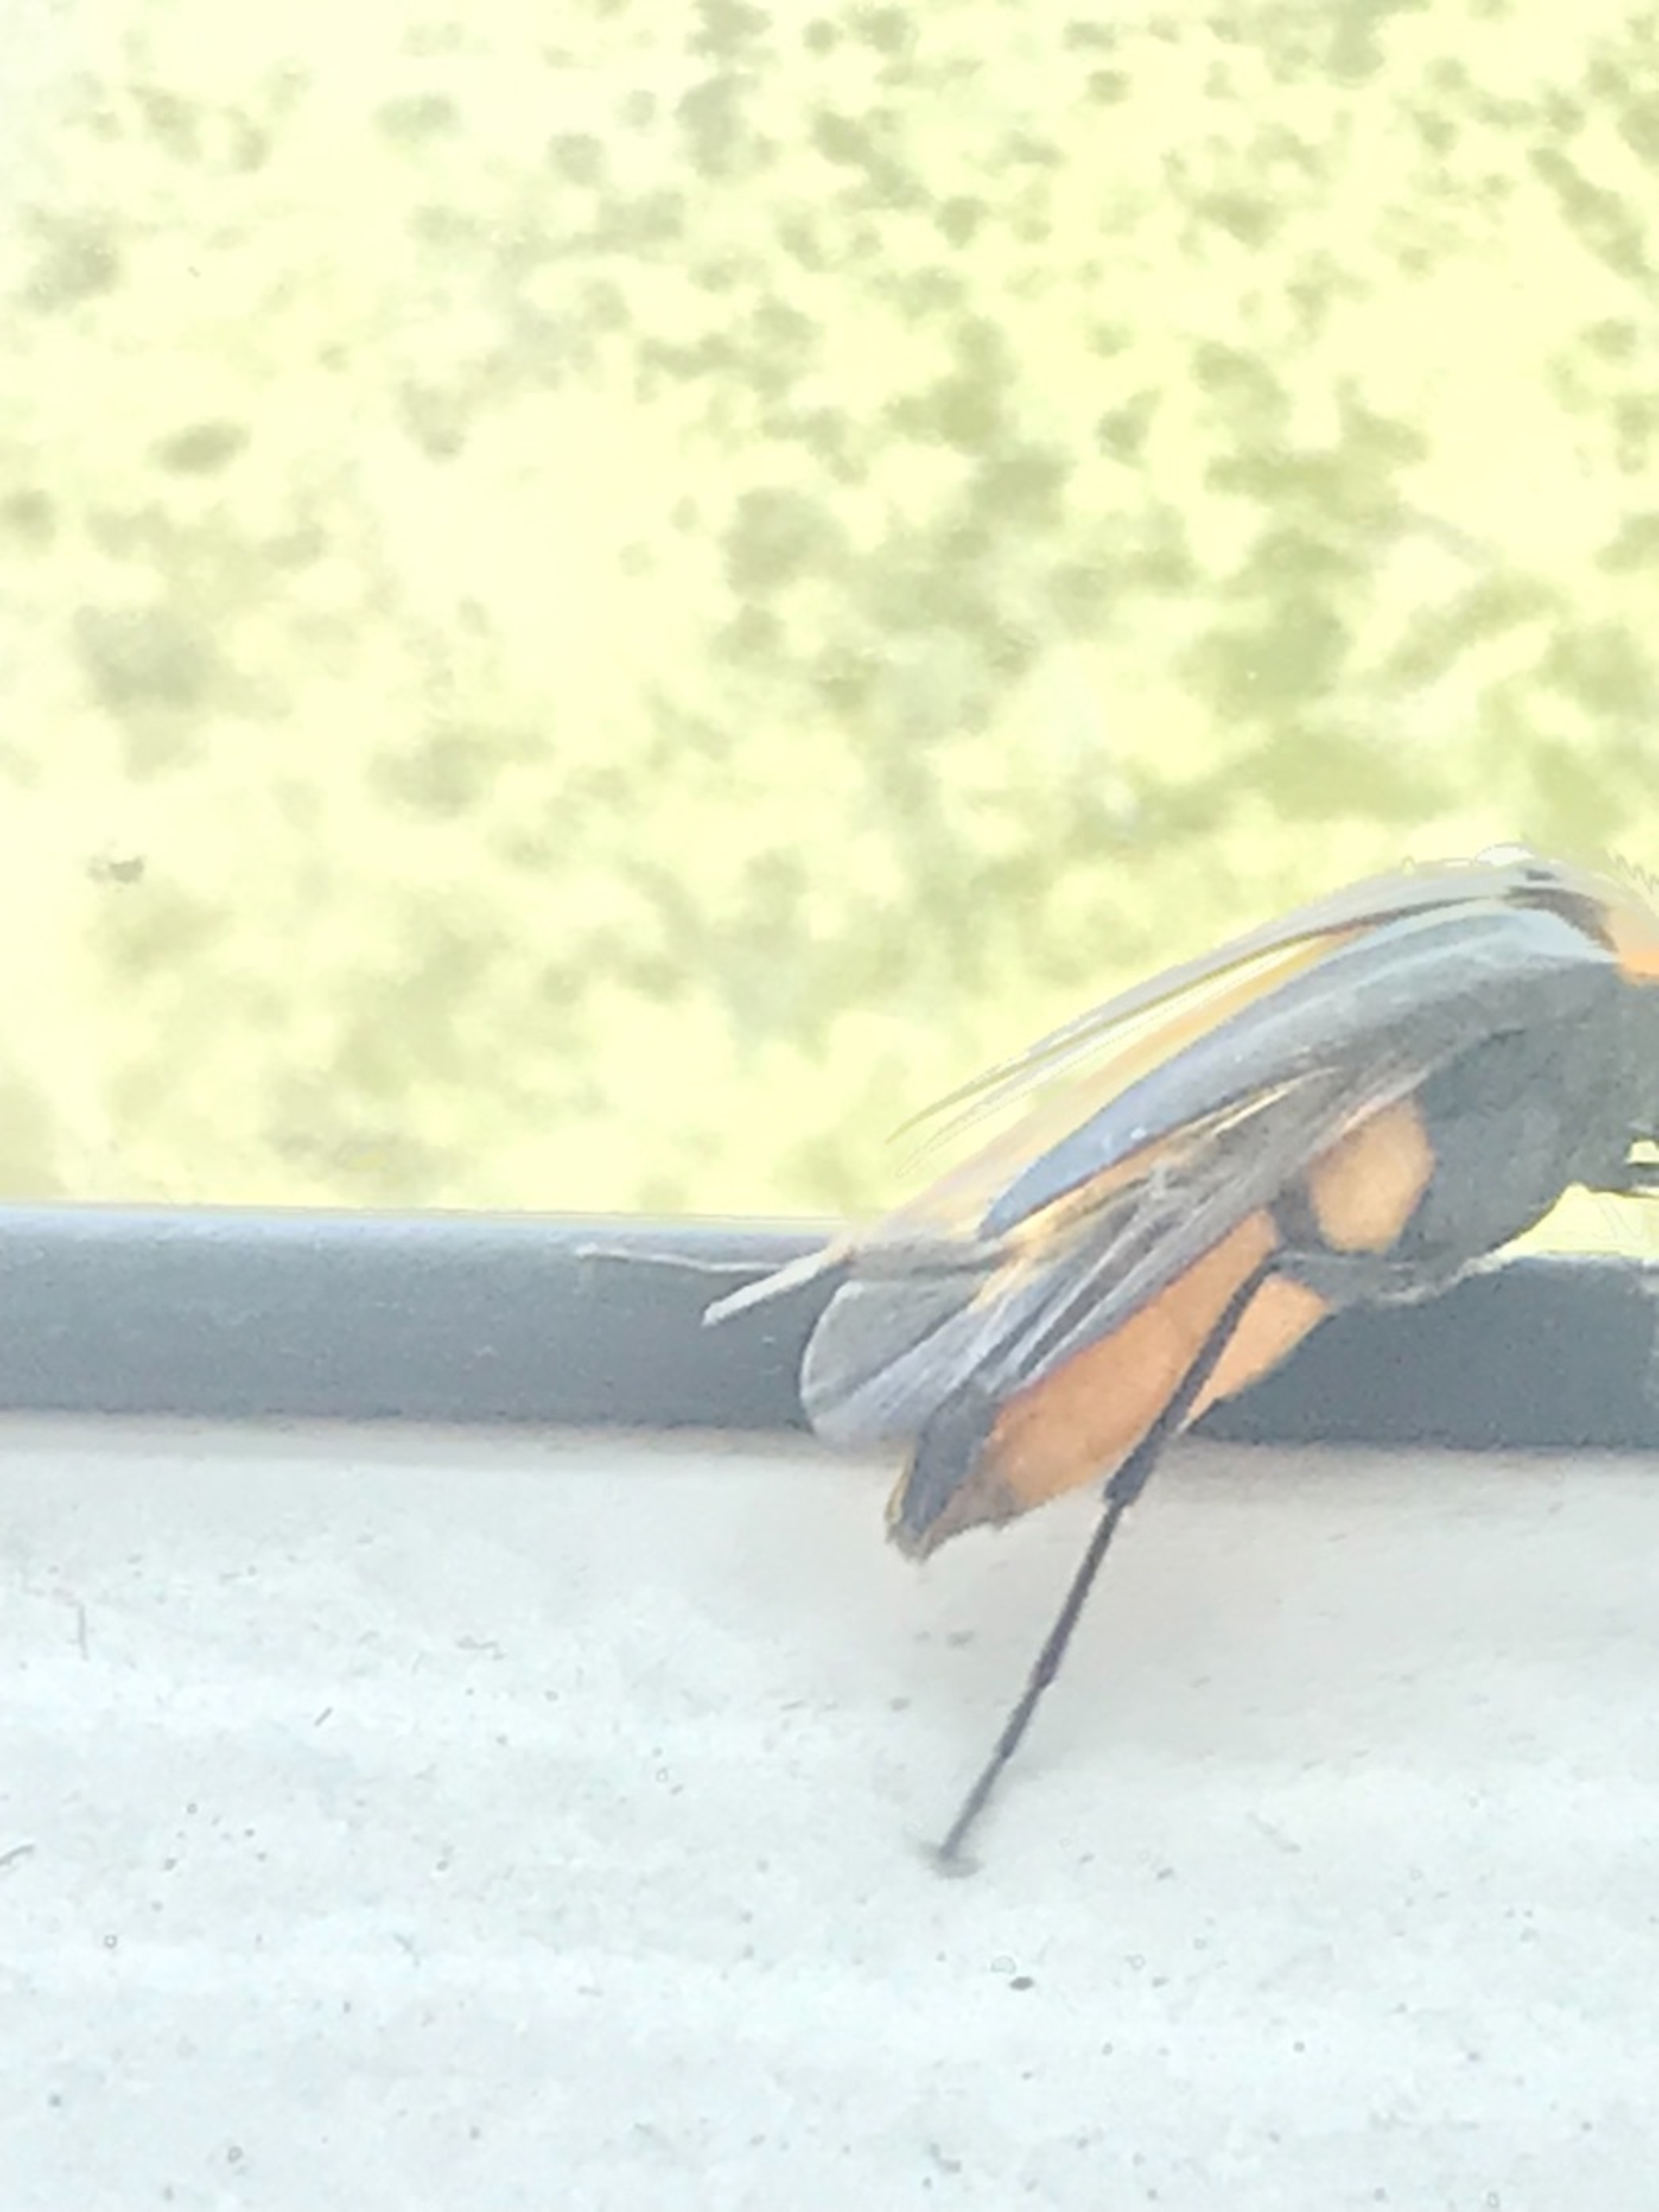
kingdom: Animalia
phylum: Arthropoda
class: Insecta
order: Coleoptera
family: Ripiphoridae
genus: Metoecus
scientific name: Metoecus paradoxus
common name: Hvepsesnyltebille
